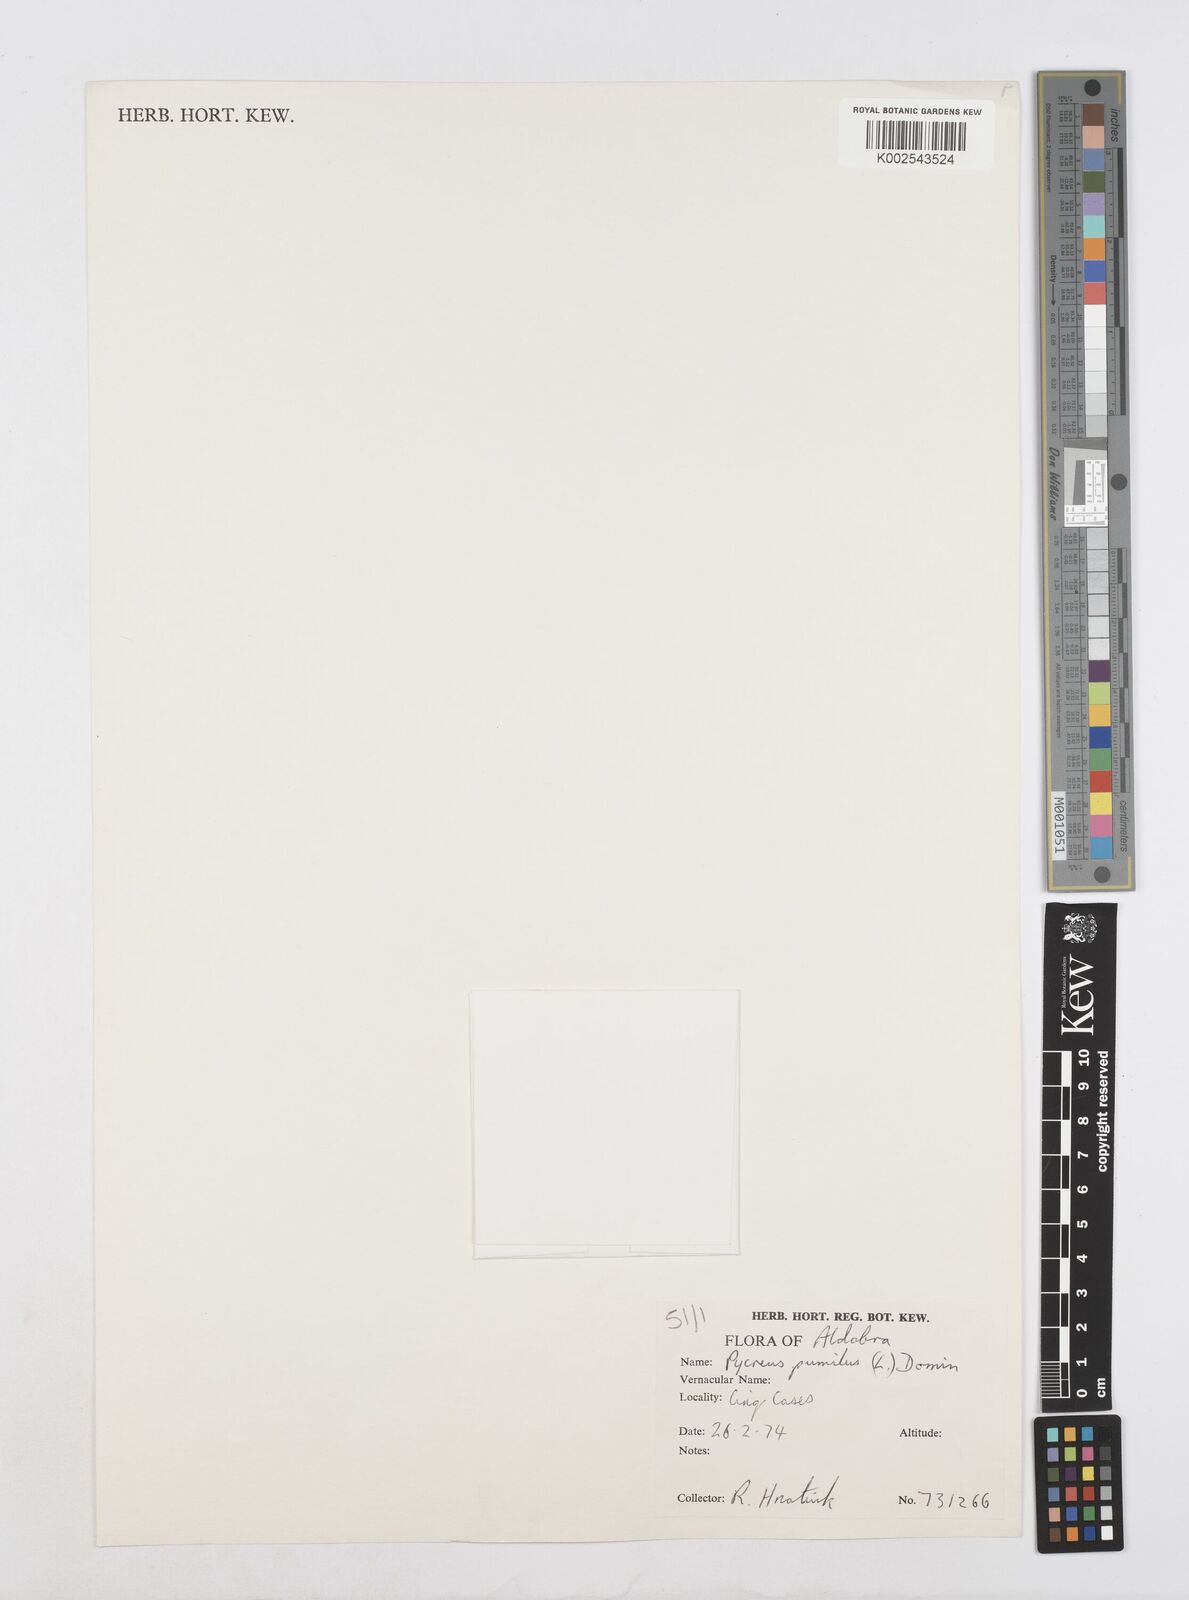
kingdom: Plantae
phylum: Tracheophyta
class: Liliopsida
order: Poales
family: Cyperaceae
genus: Cyperus
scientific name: Cyperus pumilus
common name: Low flatsedge
